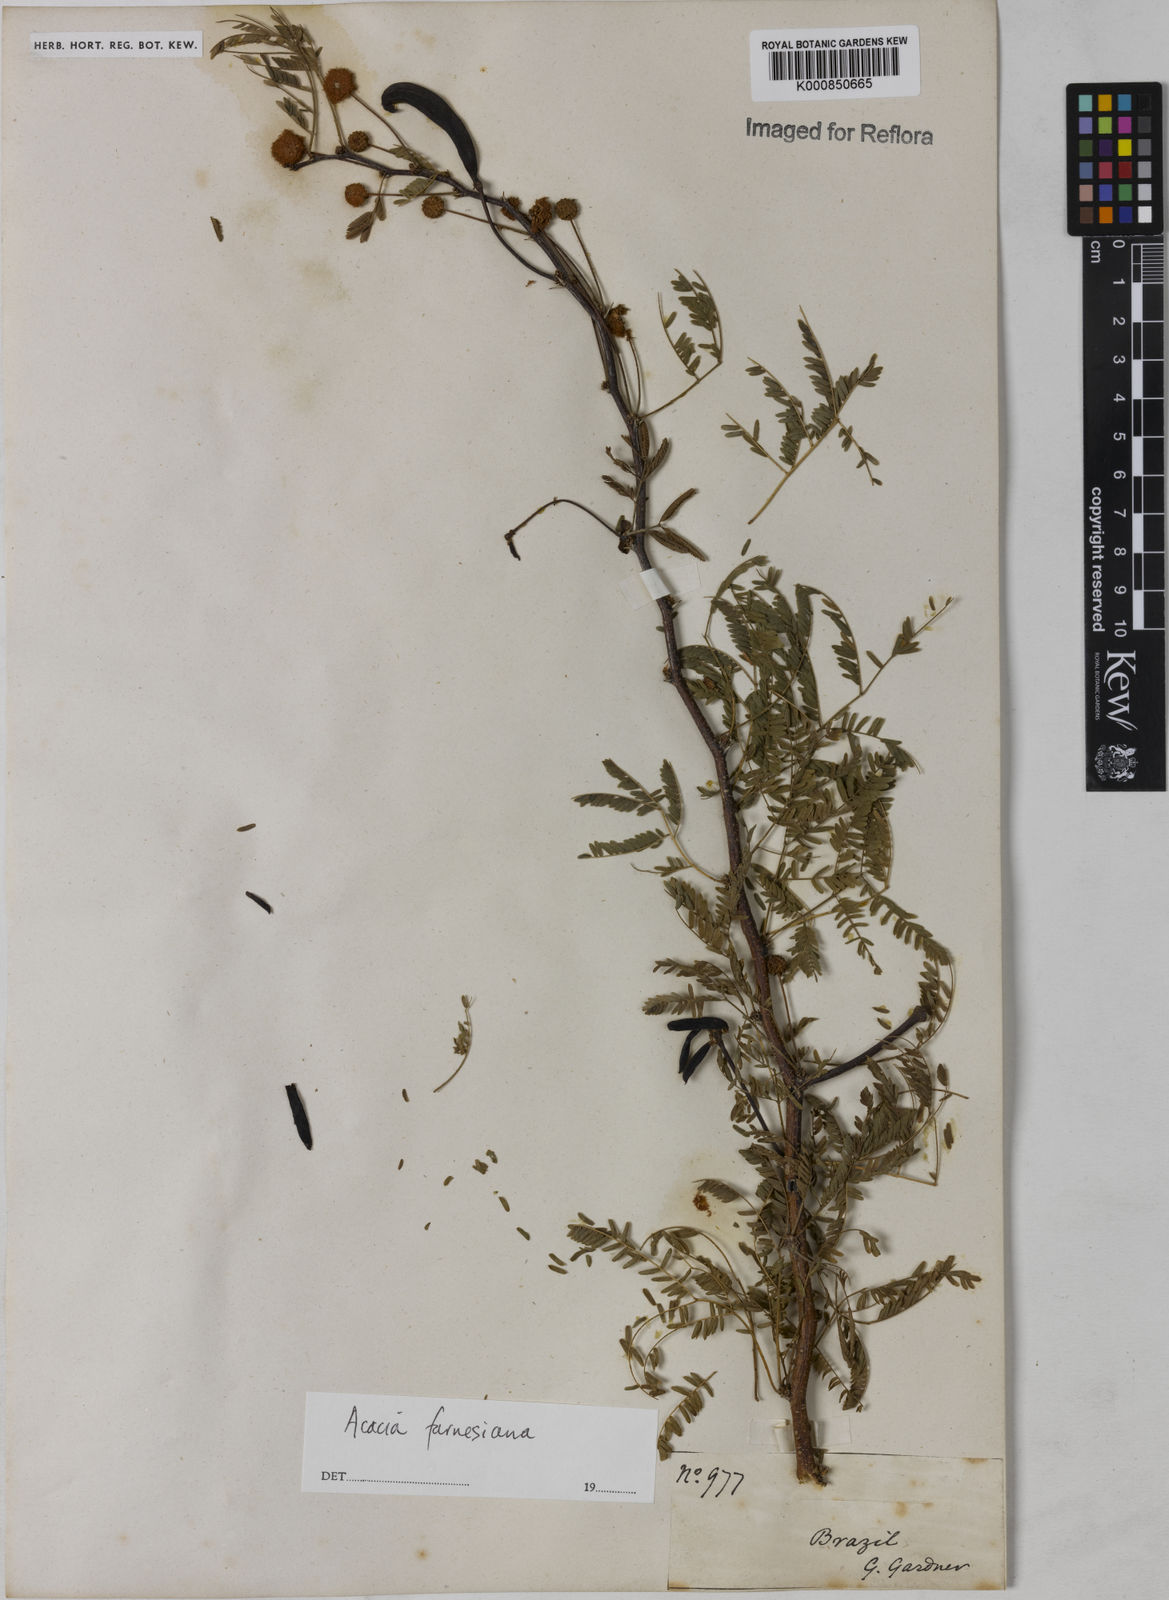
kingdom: Plantae
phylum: Tracheophyta
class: Magnoliopsida
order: Fabales
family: Fabaceae
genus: Vachellia
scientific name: Vachellia farnesiana
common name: Sweet acacia
